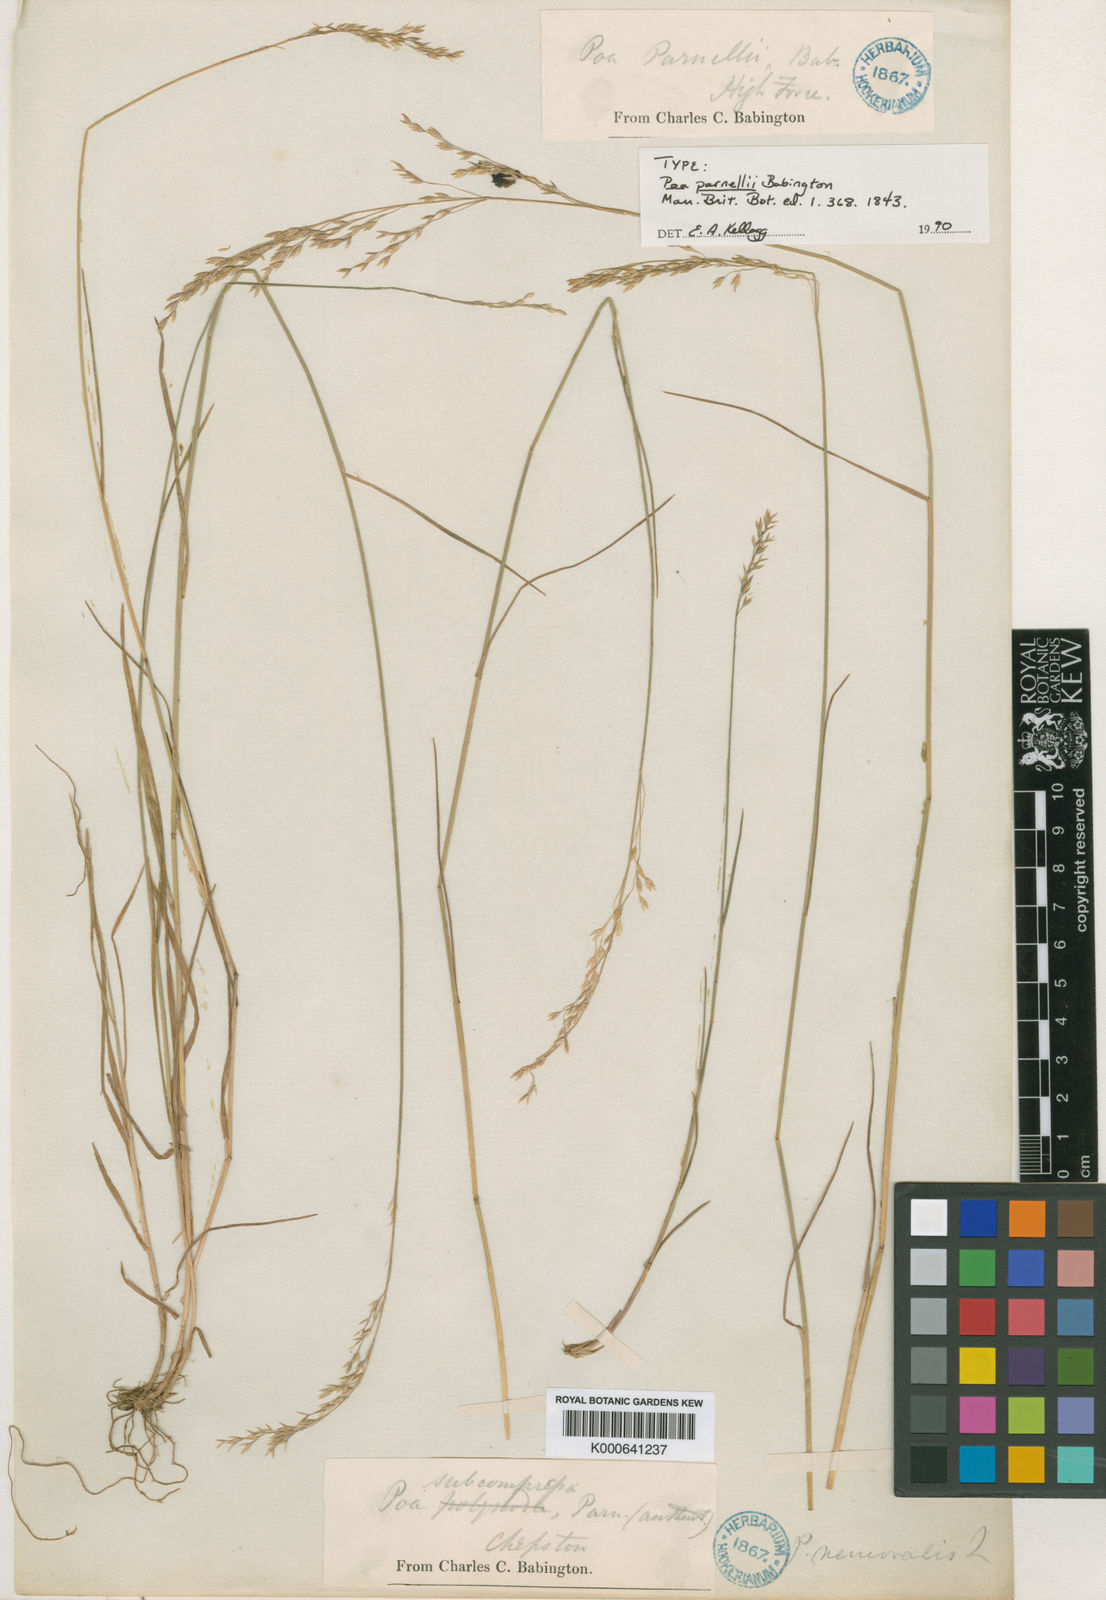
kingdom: Plantae
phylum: Tracheophyta
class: Liliopsida
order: Poales
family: Poaceae
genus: Poa
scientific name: Poa nemoralis
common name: Wood bluegrass
